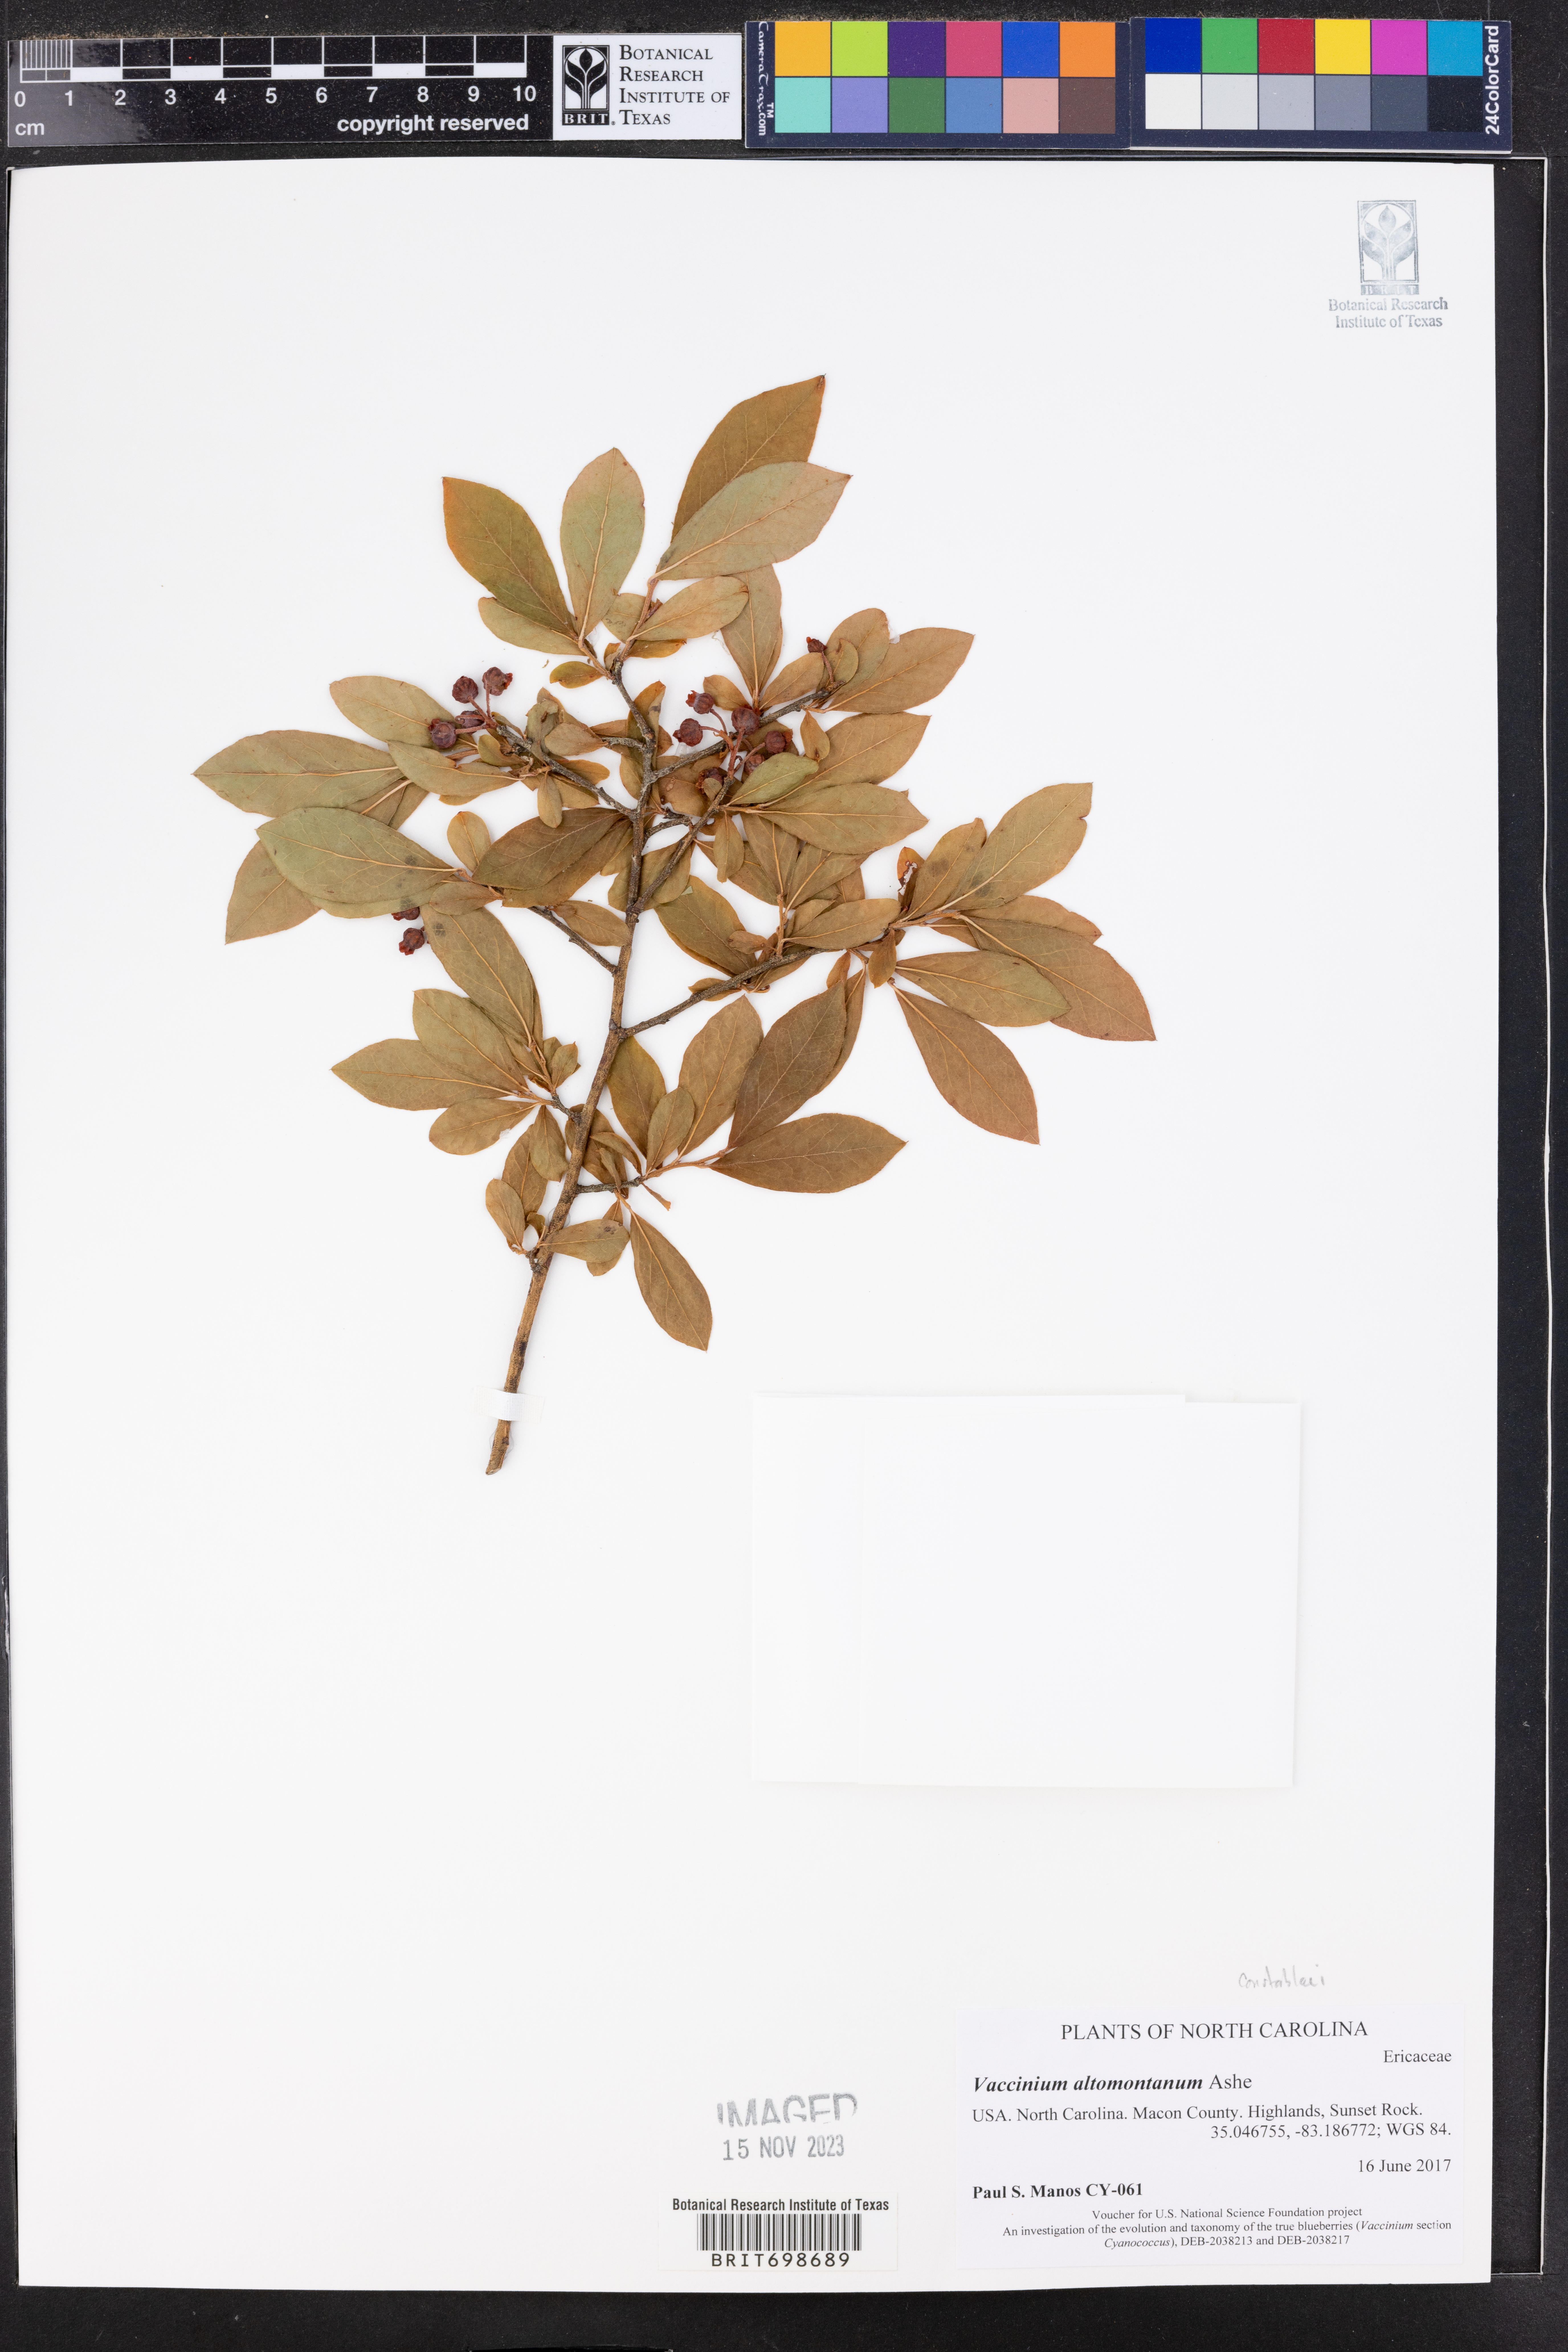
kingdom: Plantae
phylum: Tracheophyta
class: Magnoliopsida
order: Ericales
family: Ericaceae
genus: Vaccinium
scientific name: Vaccinium pallidum
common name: Blue ridge blueberry
